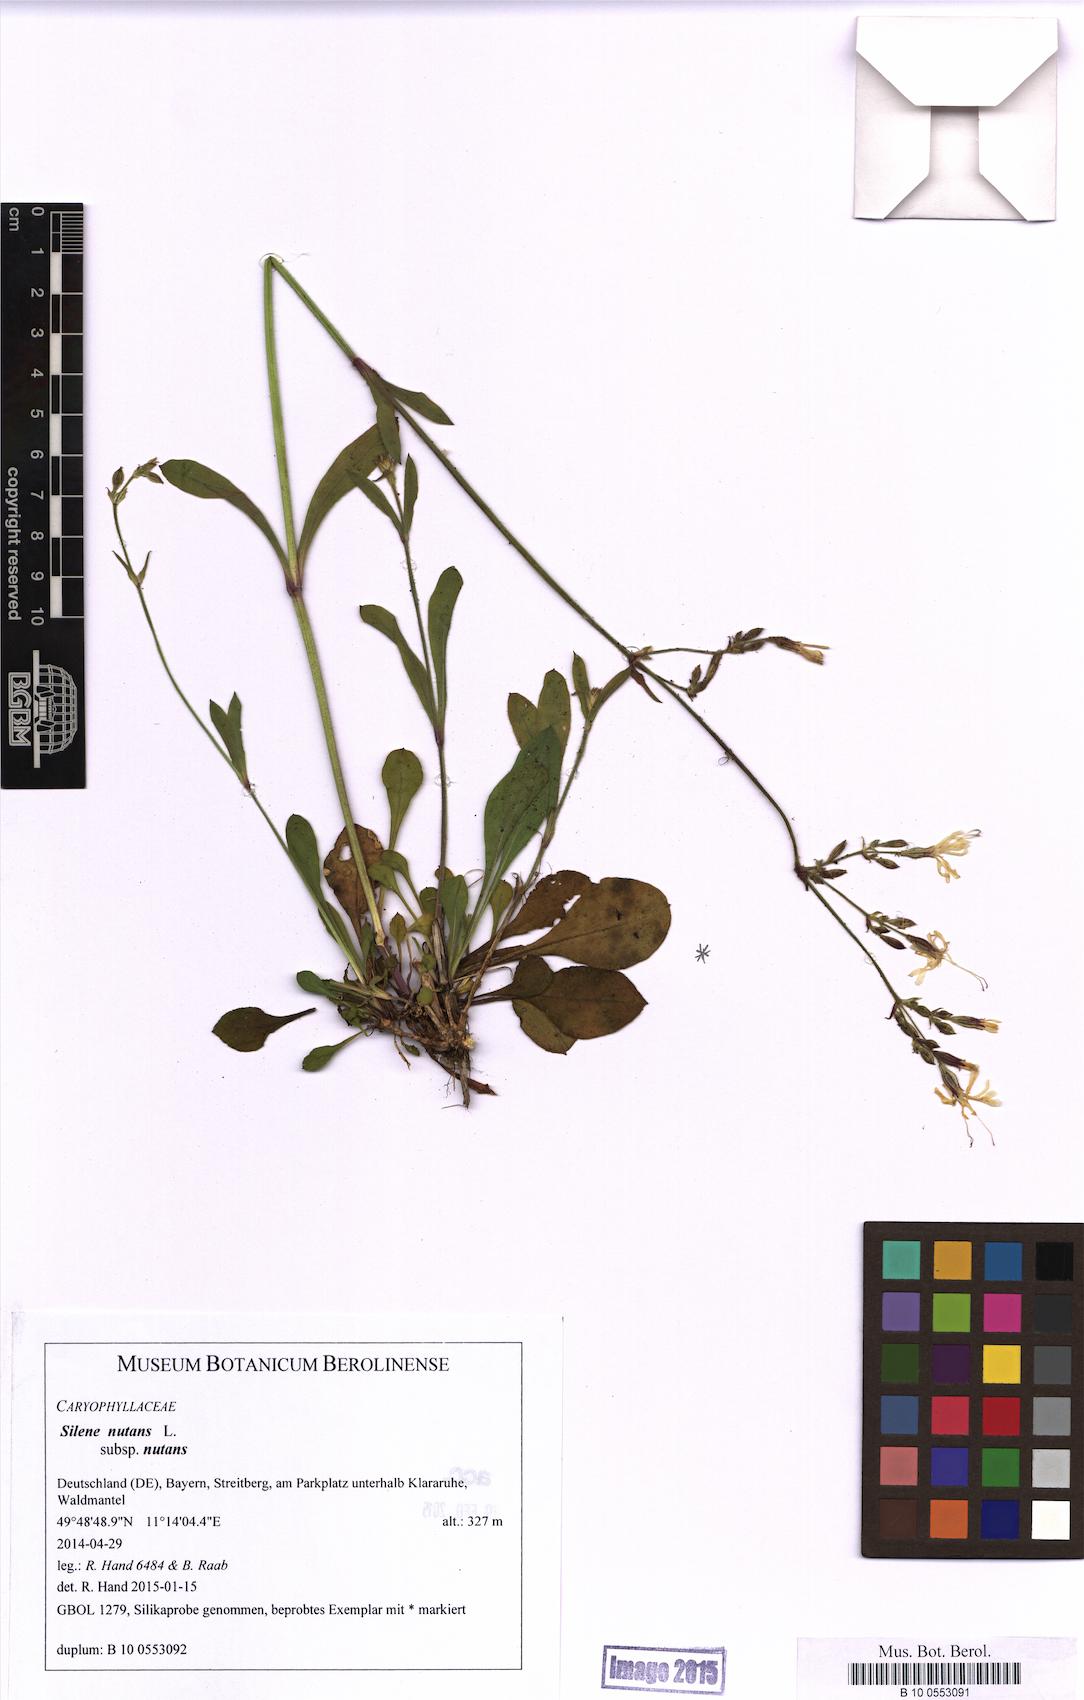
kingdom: Plantae
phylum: Tracheophyta
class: Magnoliopsida
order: Caryophyllales
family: Caryophyllaceae
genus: Silene
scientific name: Silene nutans
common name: Nottingham catchfly
